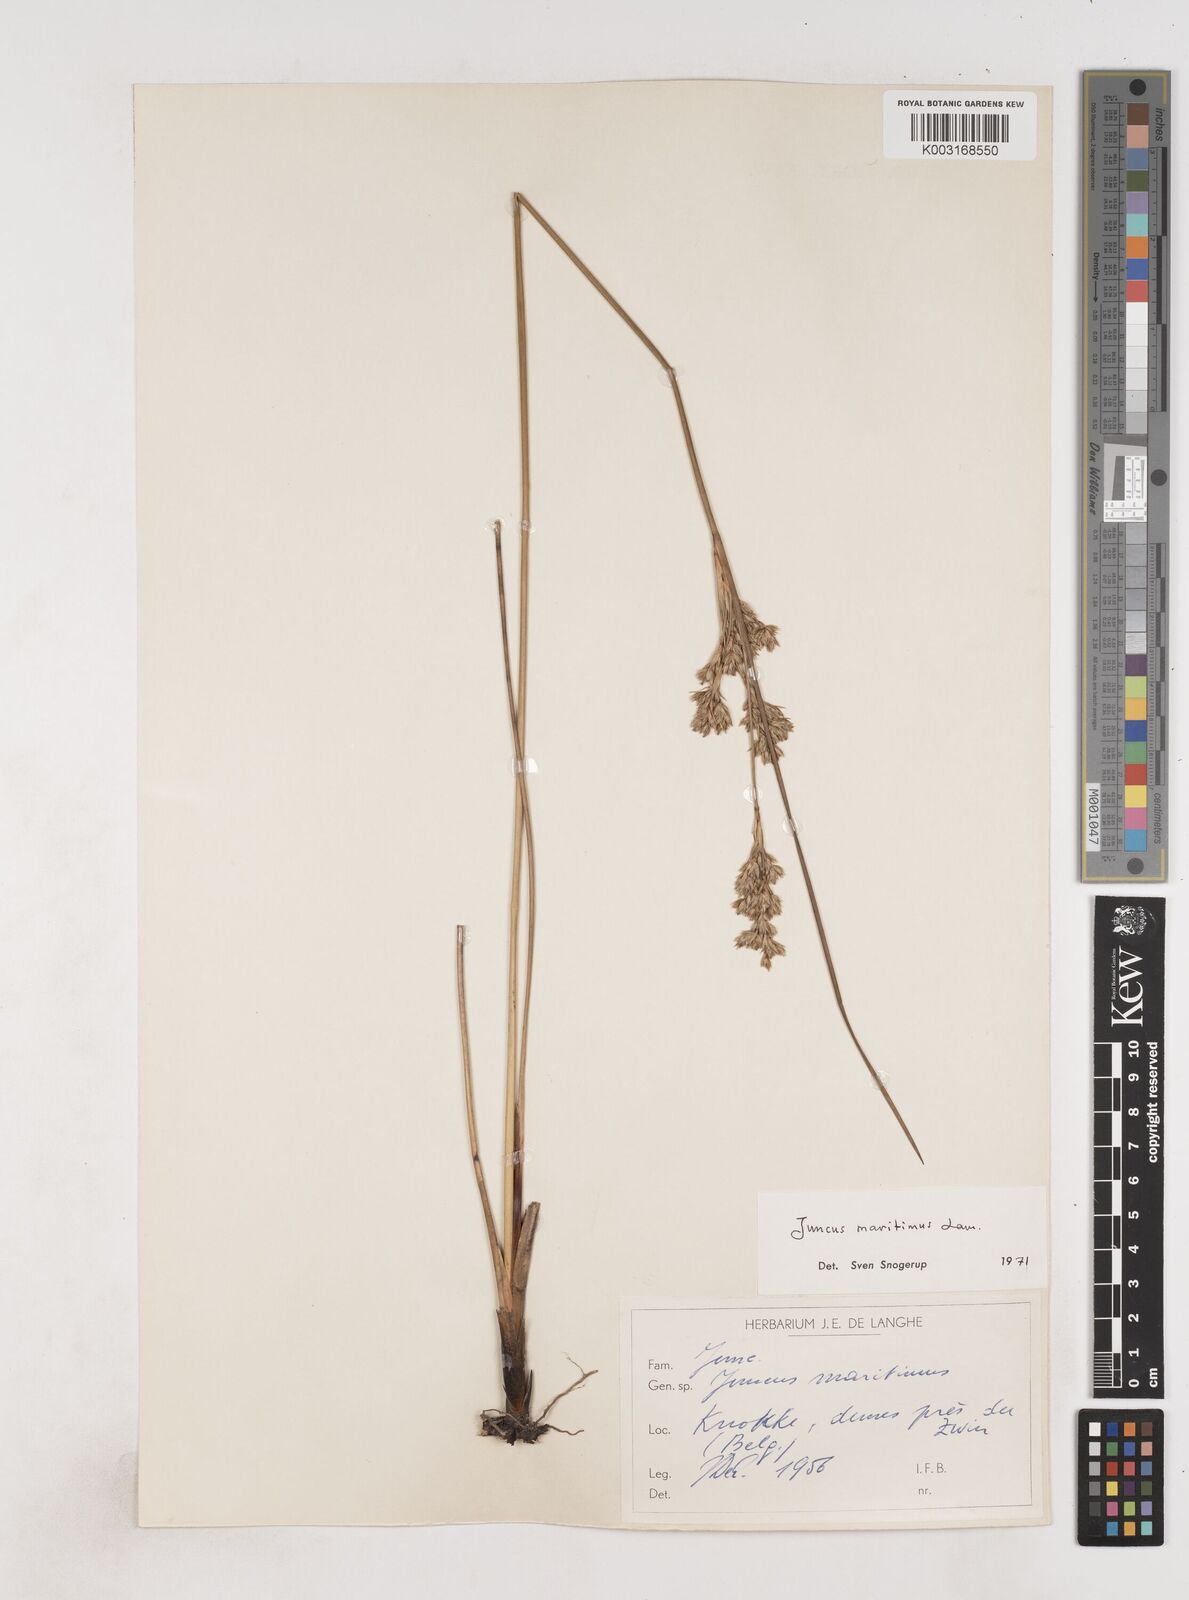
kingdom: Plantae
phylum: Tracheophyta
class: Liliopsida
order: Poales
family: Juncaceae
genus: Juncus
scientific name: Juncus maritimus
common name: Sea rush
